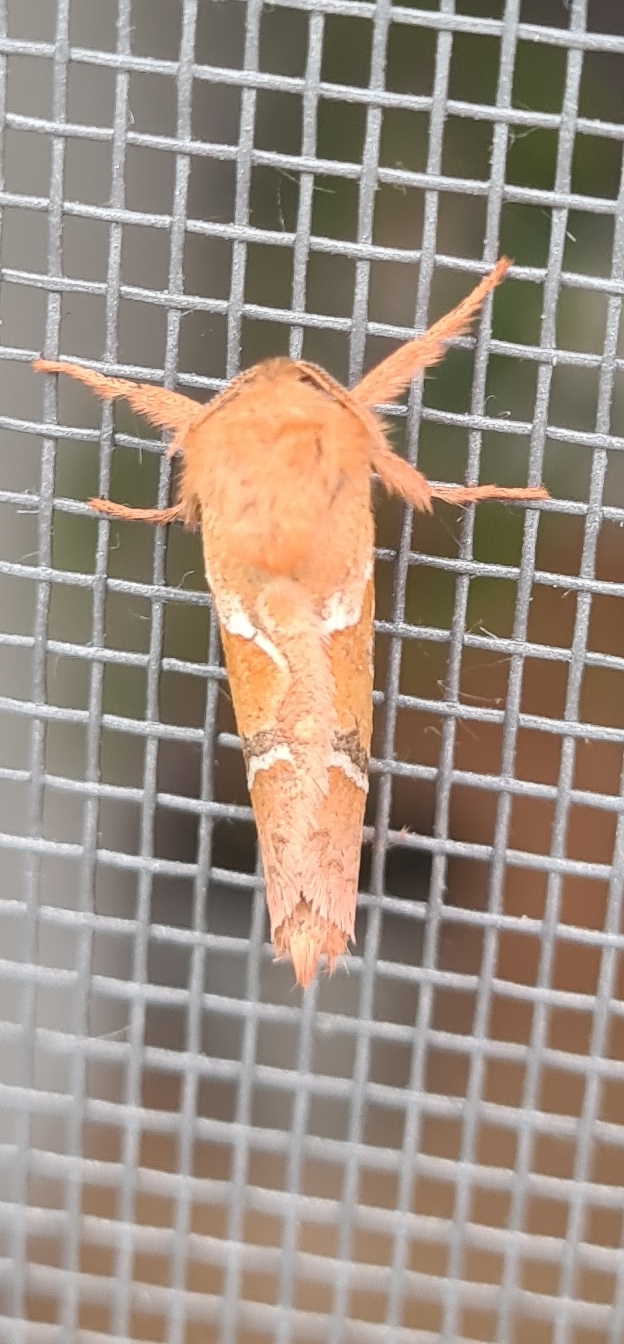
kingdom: Animalia
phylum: Arthropoda
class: Insecta
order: Lepidoptera
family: Hepialidae
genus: Triodia
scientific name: Triodia sylvina
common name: Skræpperodæder
